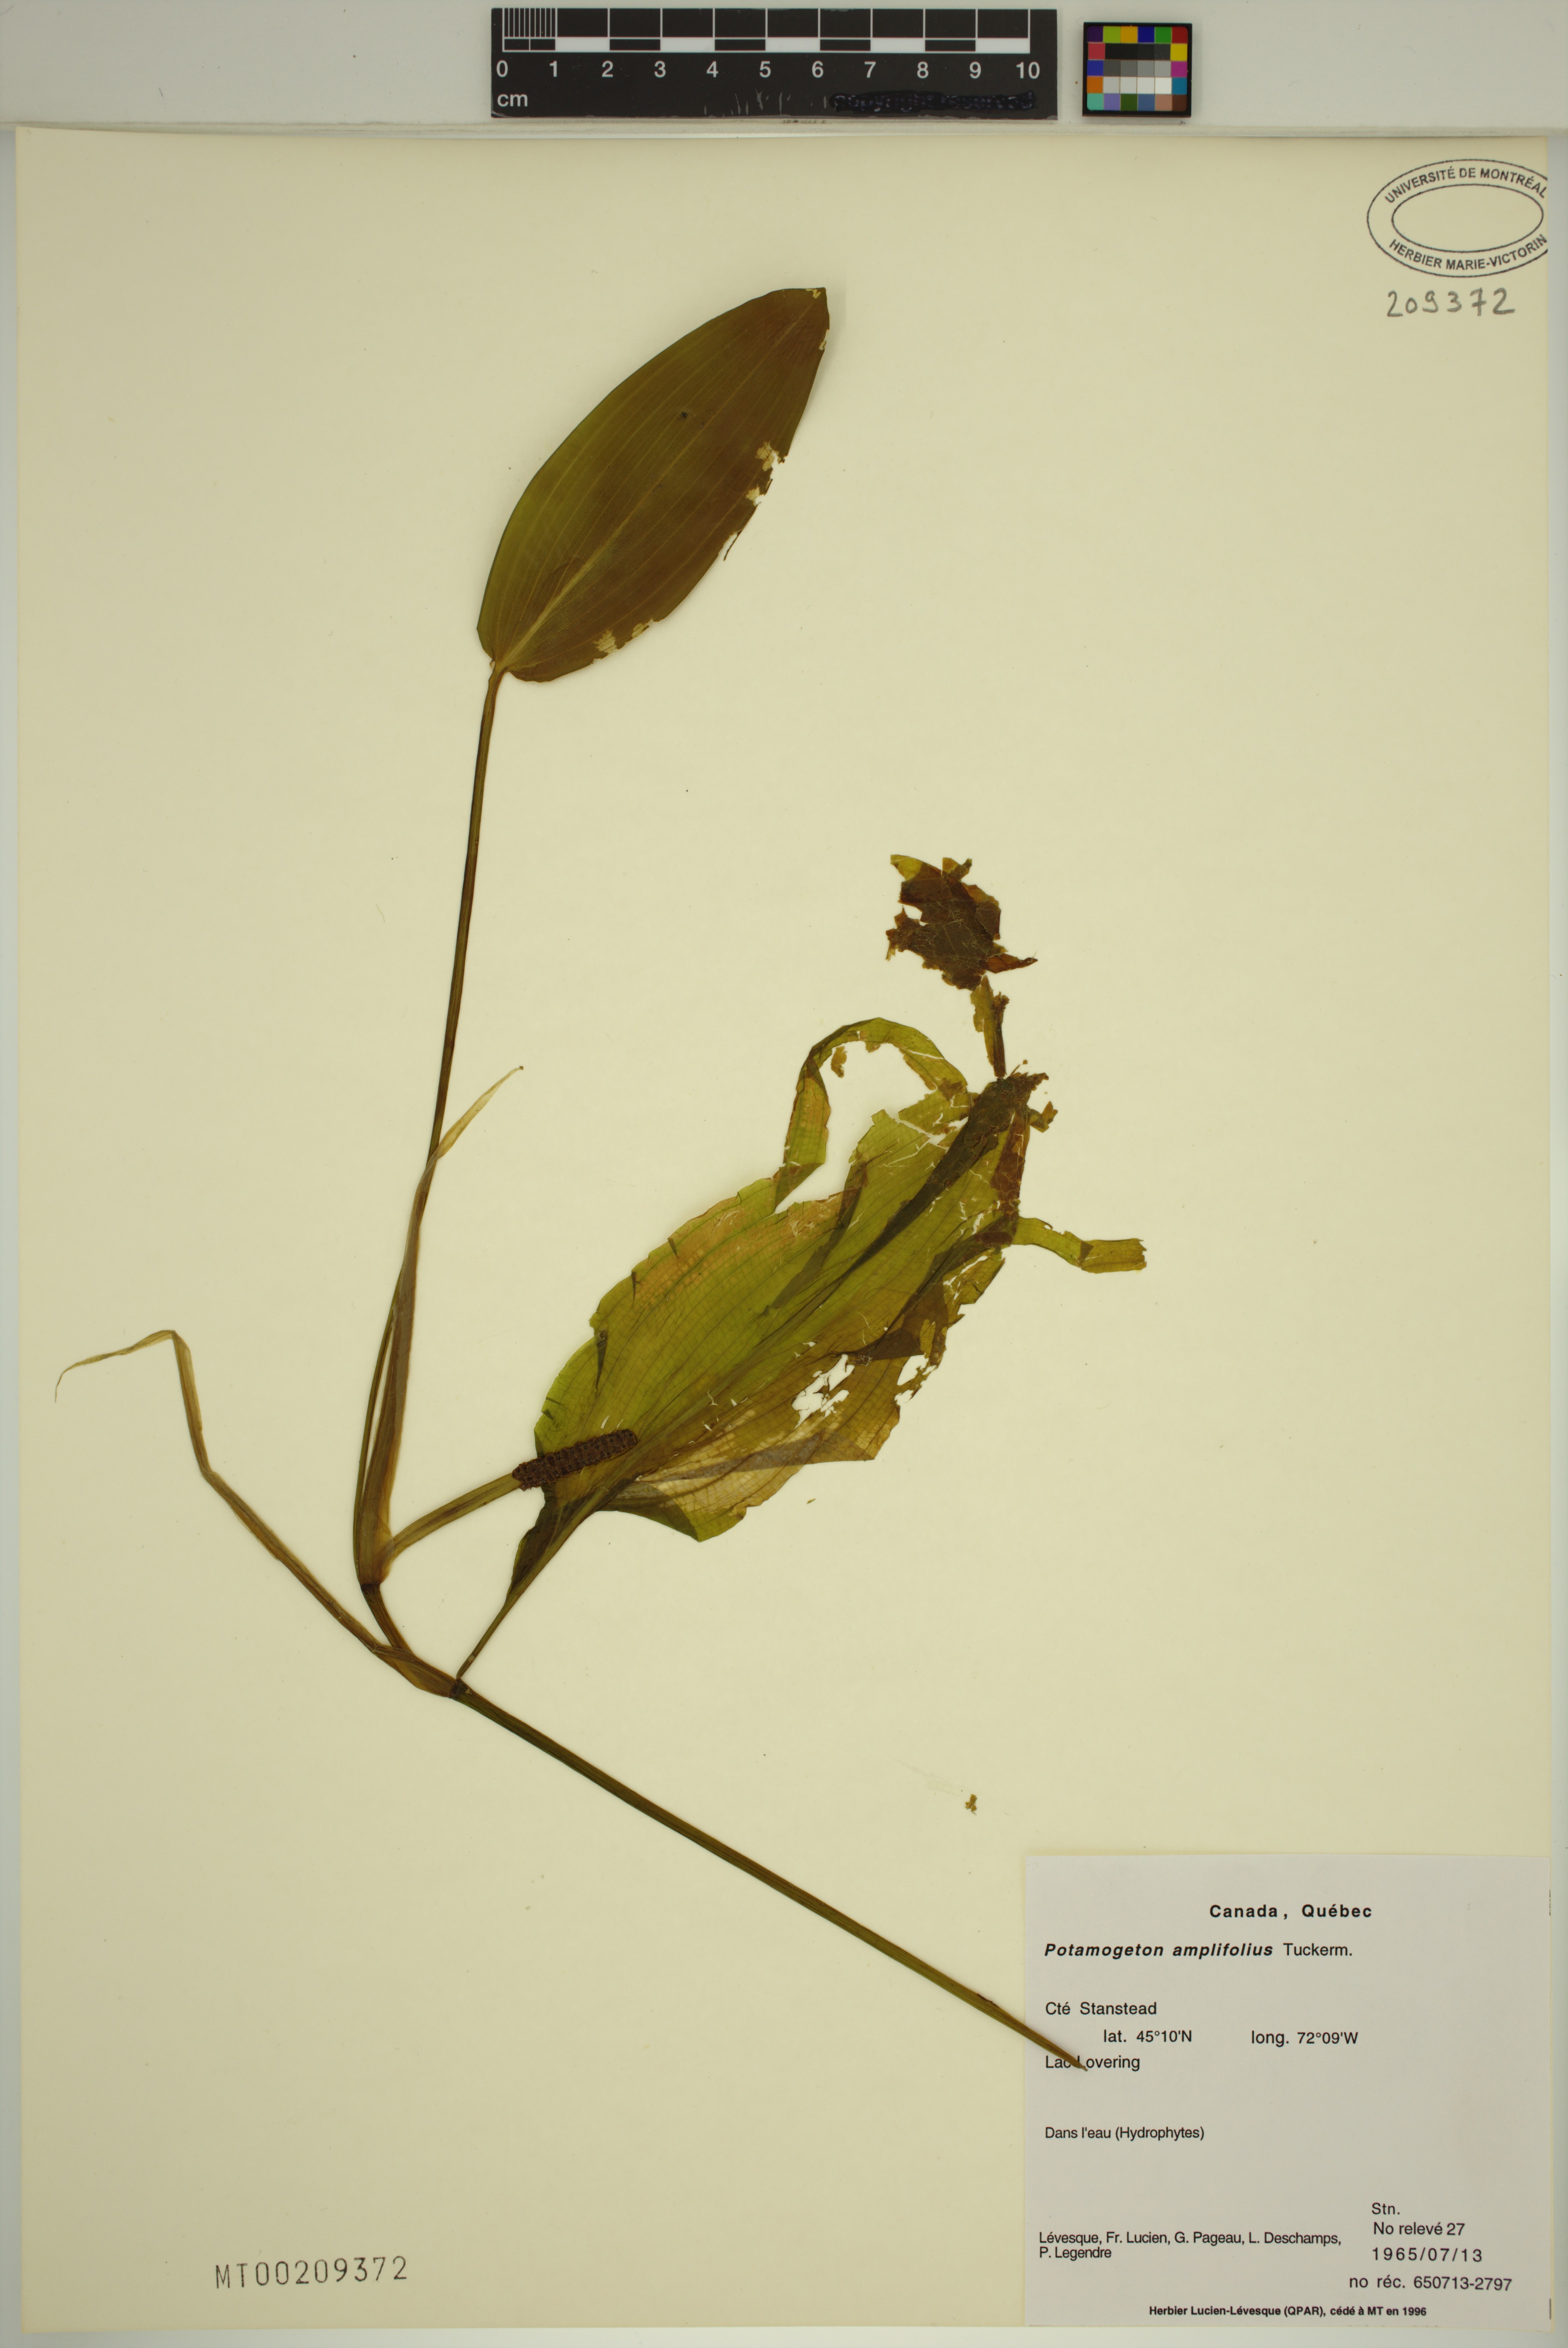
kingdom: Plantae
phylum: Tracheophyta
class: Liliopsida
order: Alismatales
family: Potamogetonaceae
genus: Potamogeton
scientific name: Potamogeton amplifolius
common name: Broad-leaved pondweed
